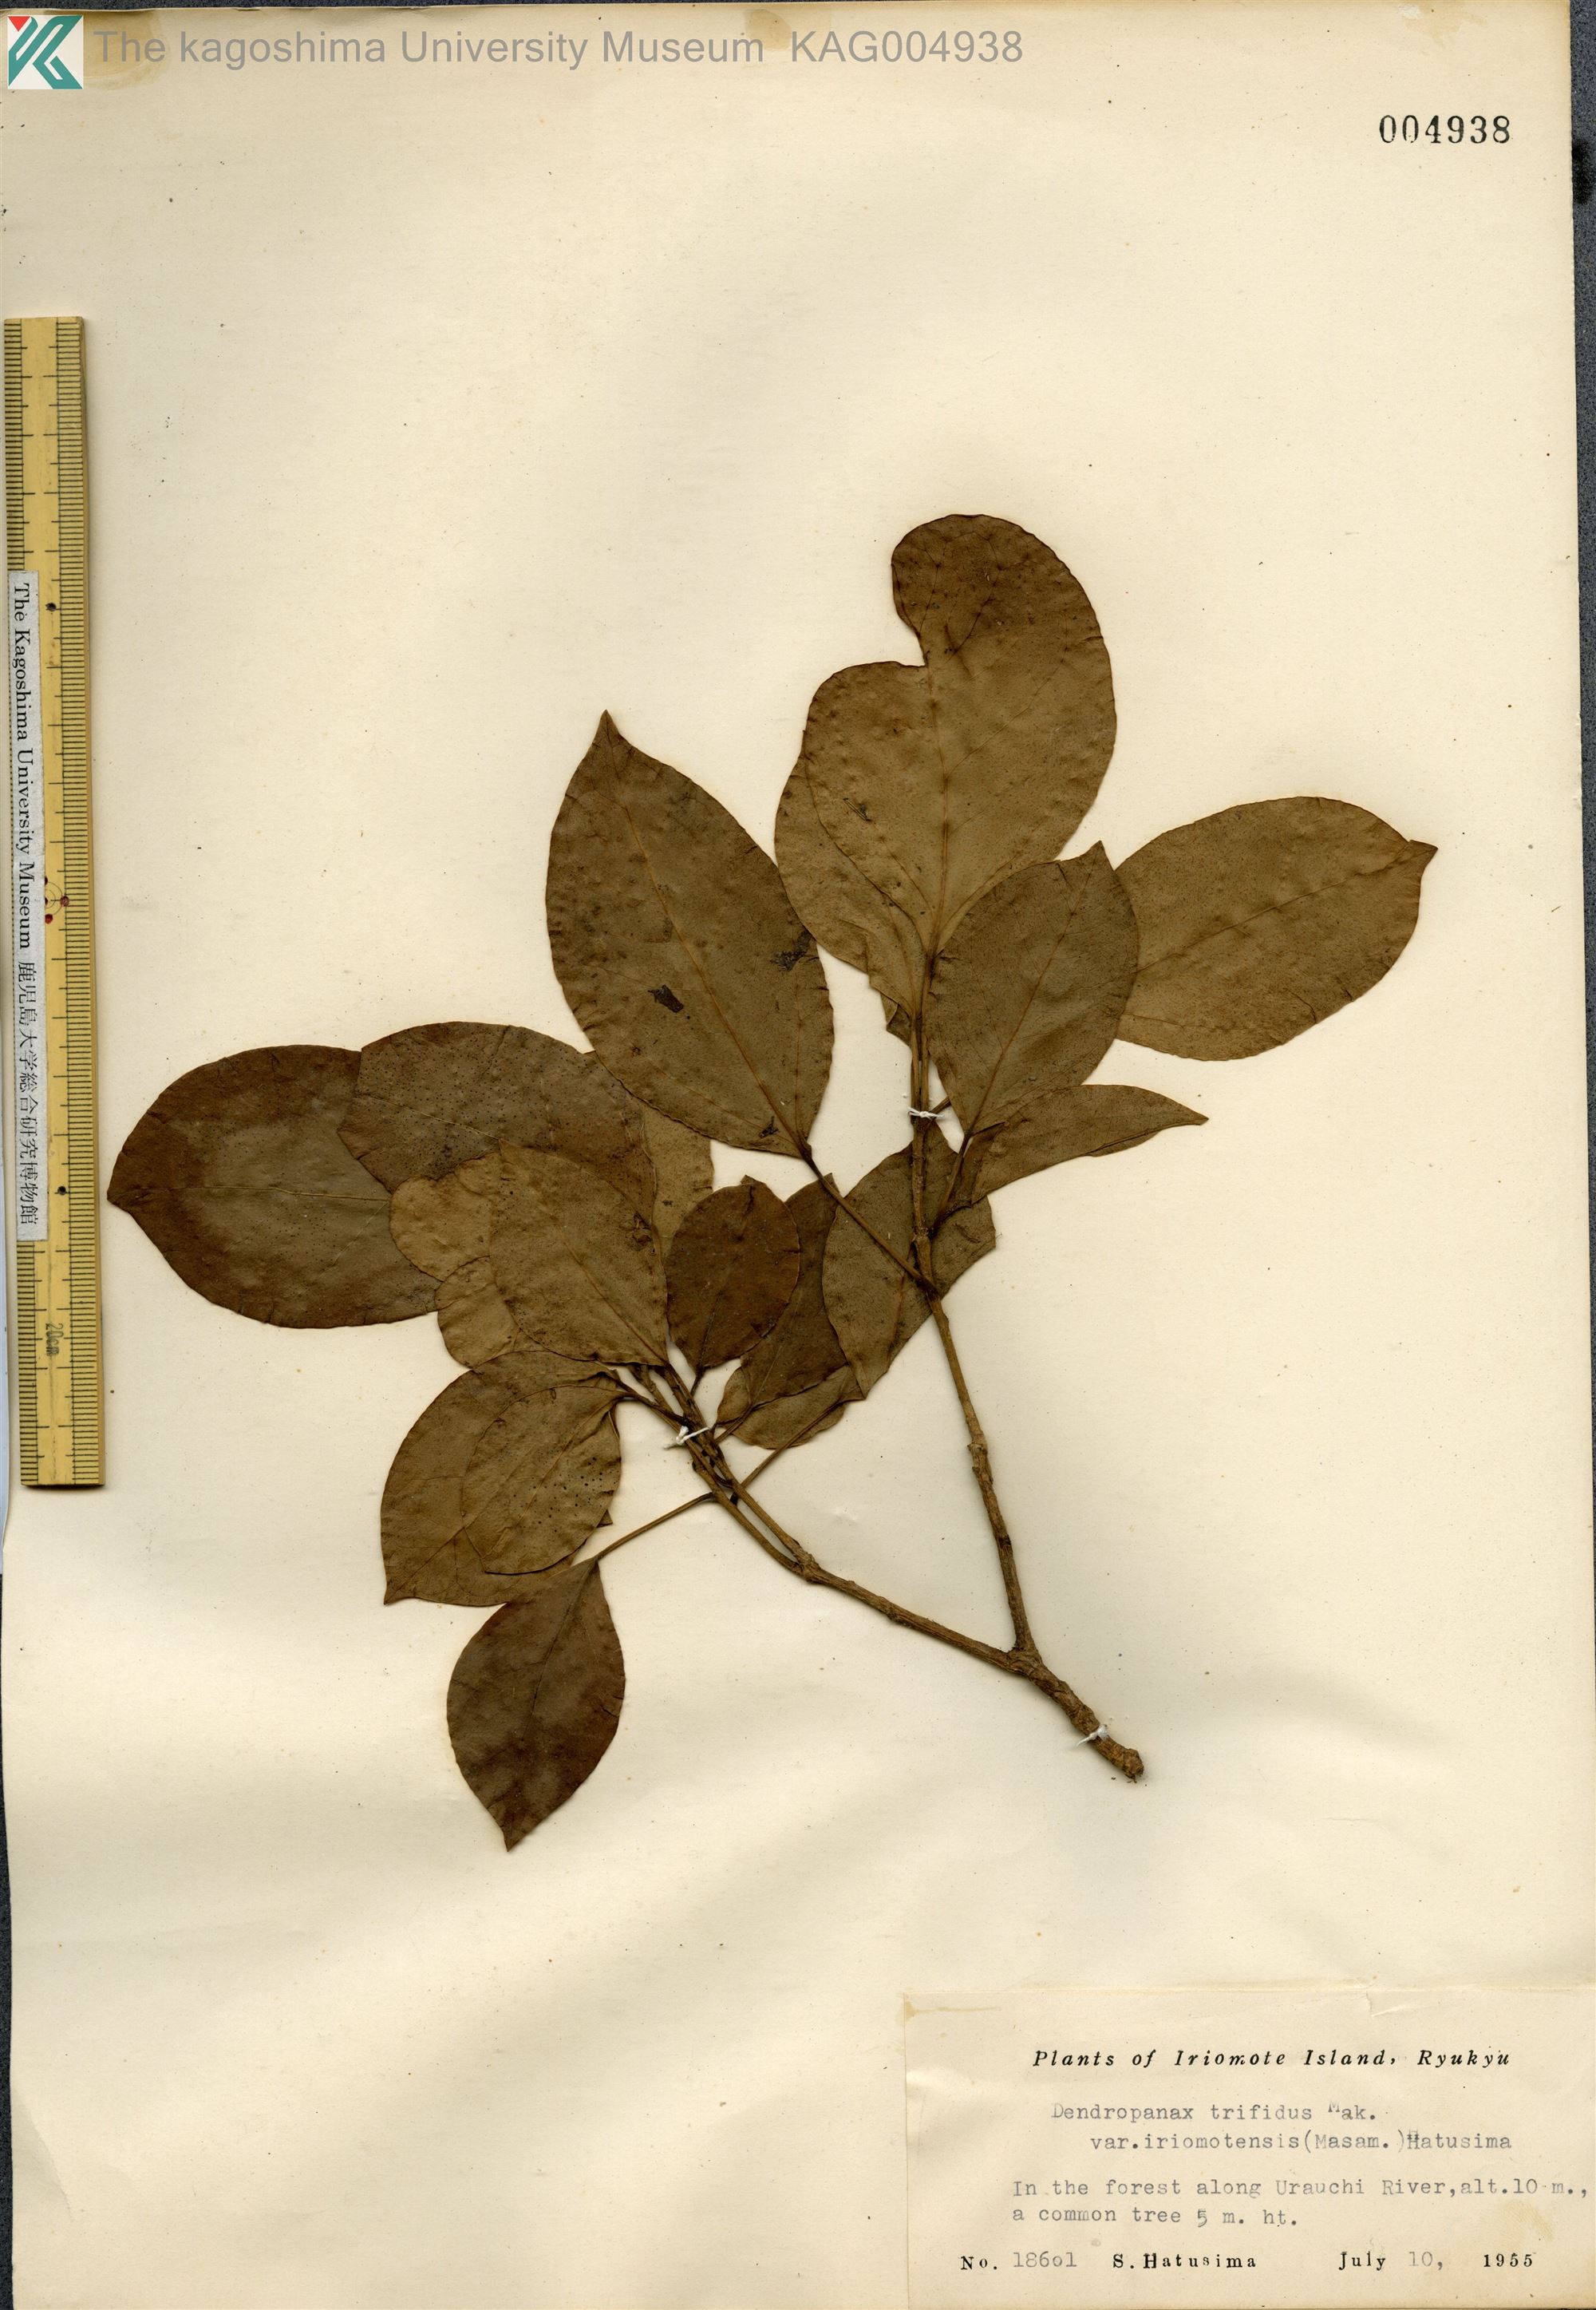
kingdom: Plantae
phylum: Tracheophyta
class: Magnoliopsida
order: Apiales
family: Araliaceae
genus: Dendropanax
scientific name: Dendropanax trifidus
